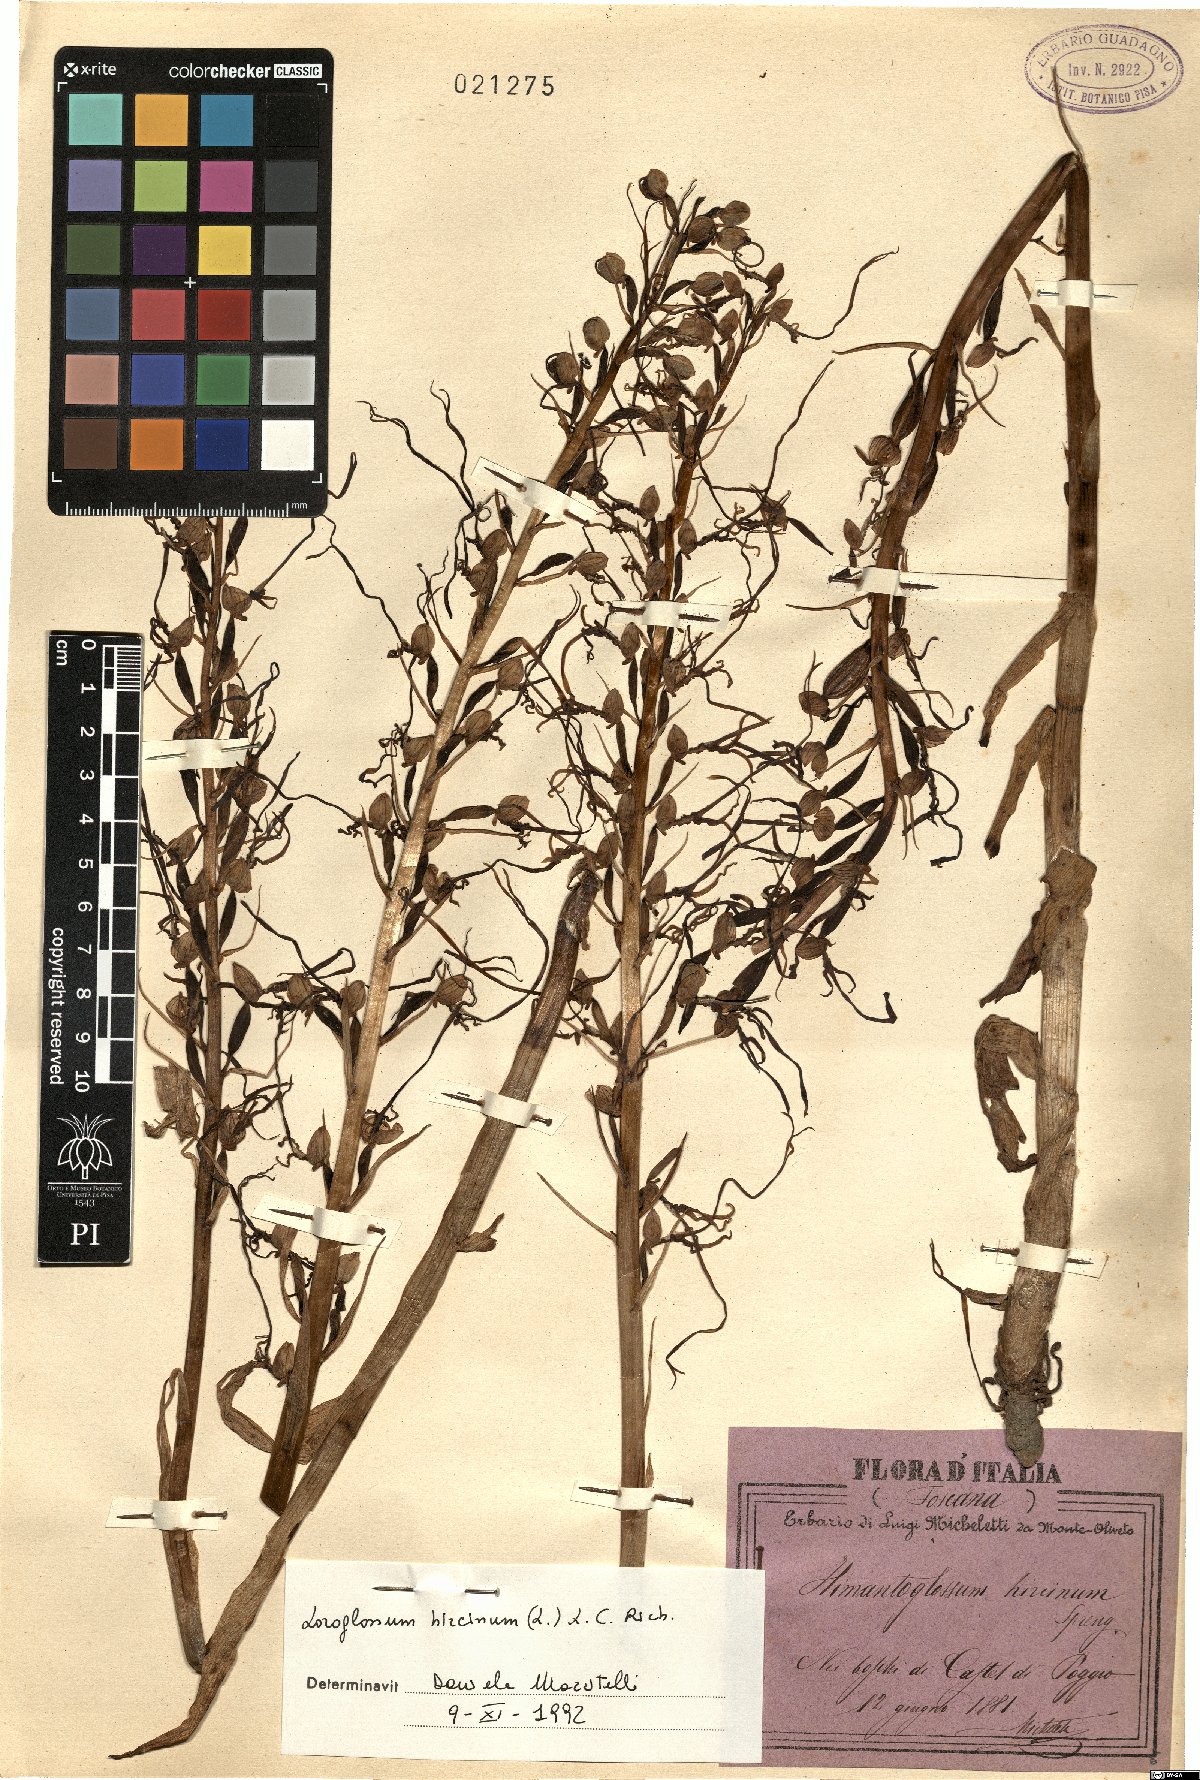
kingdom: Plantae
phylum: Tracheophyta
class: Liliopsida
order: Asparagales
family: Orchidaceae
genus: Himantoglossum
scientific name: Himantoglossum hircinum
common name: Lizard orchid
